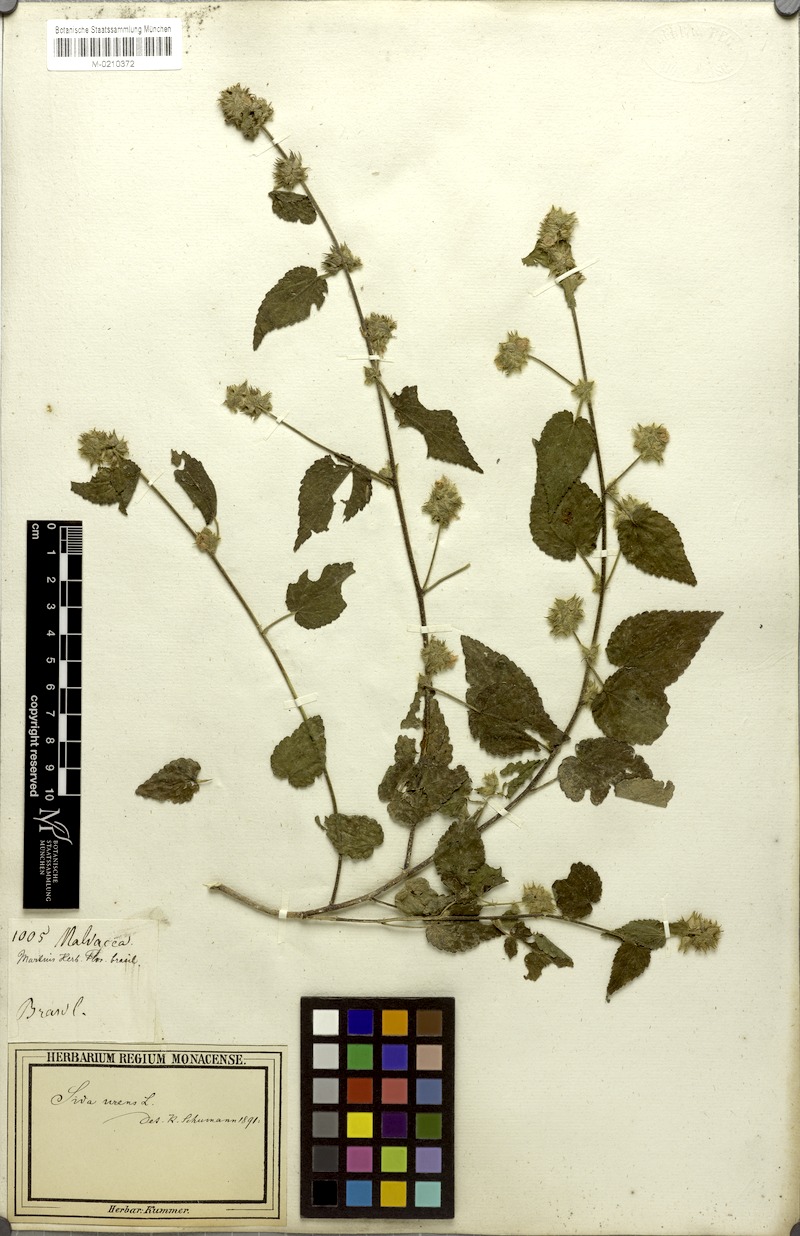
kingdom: Plantae
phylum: Tracheophyta
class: Magnoliopsida
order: Malvales
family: Malvaceae
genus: Sida
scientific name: Sida urens
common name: Tropical fanpetals
